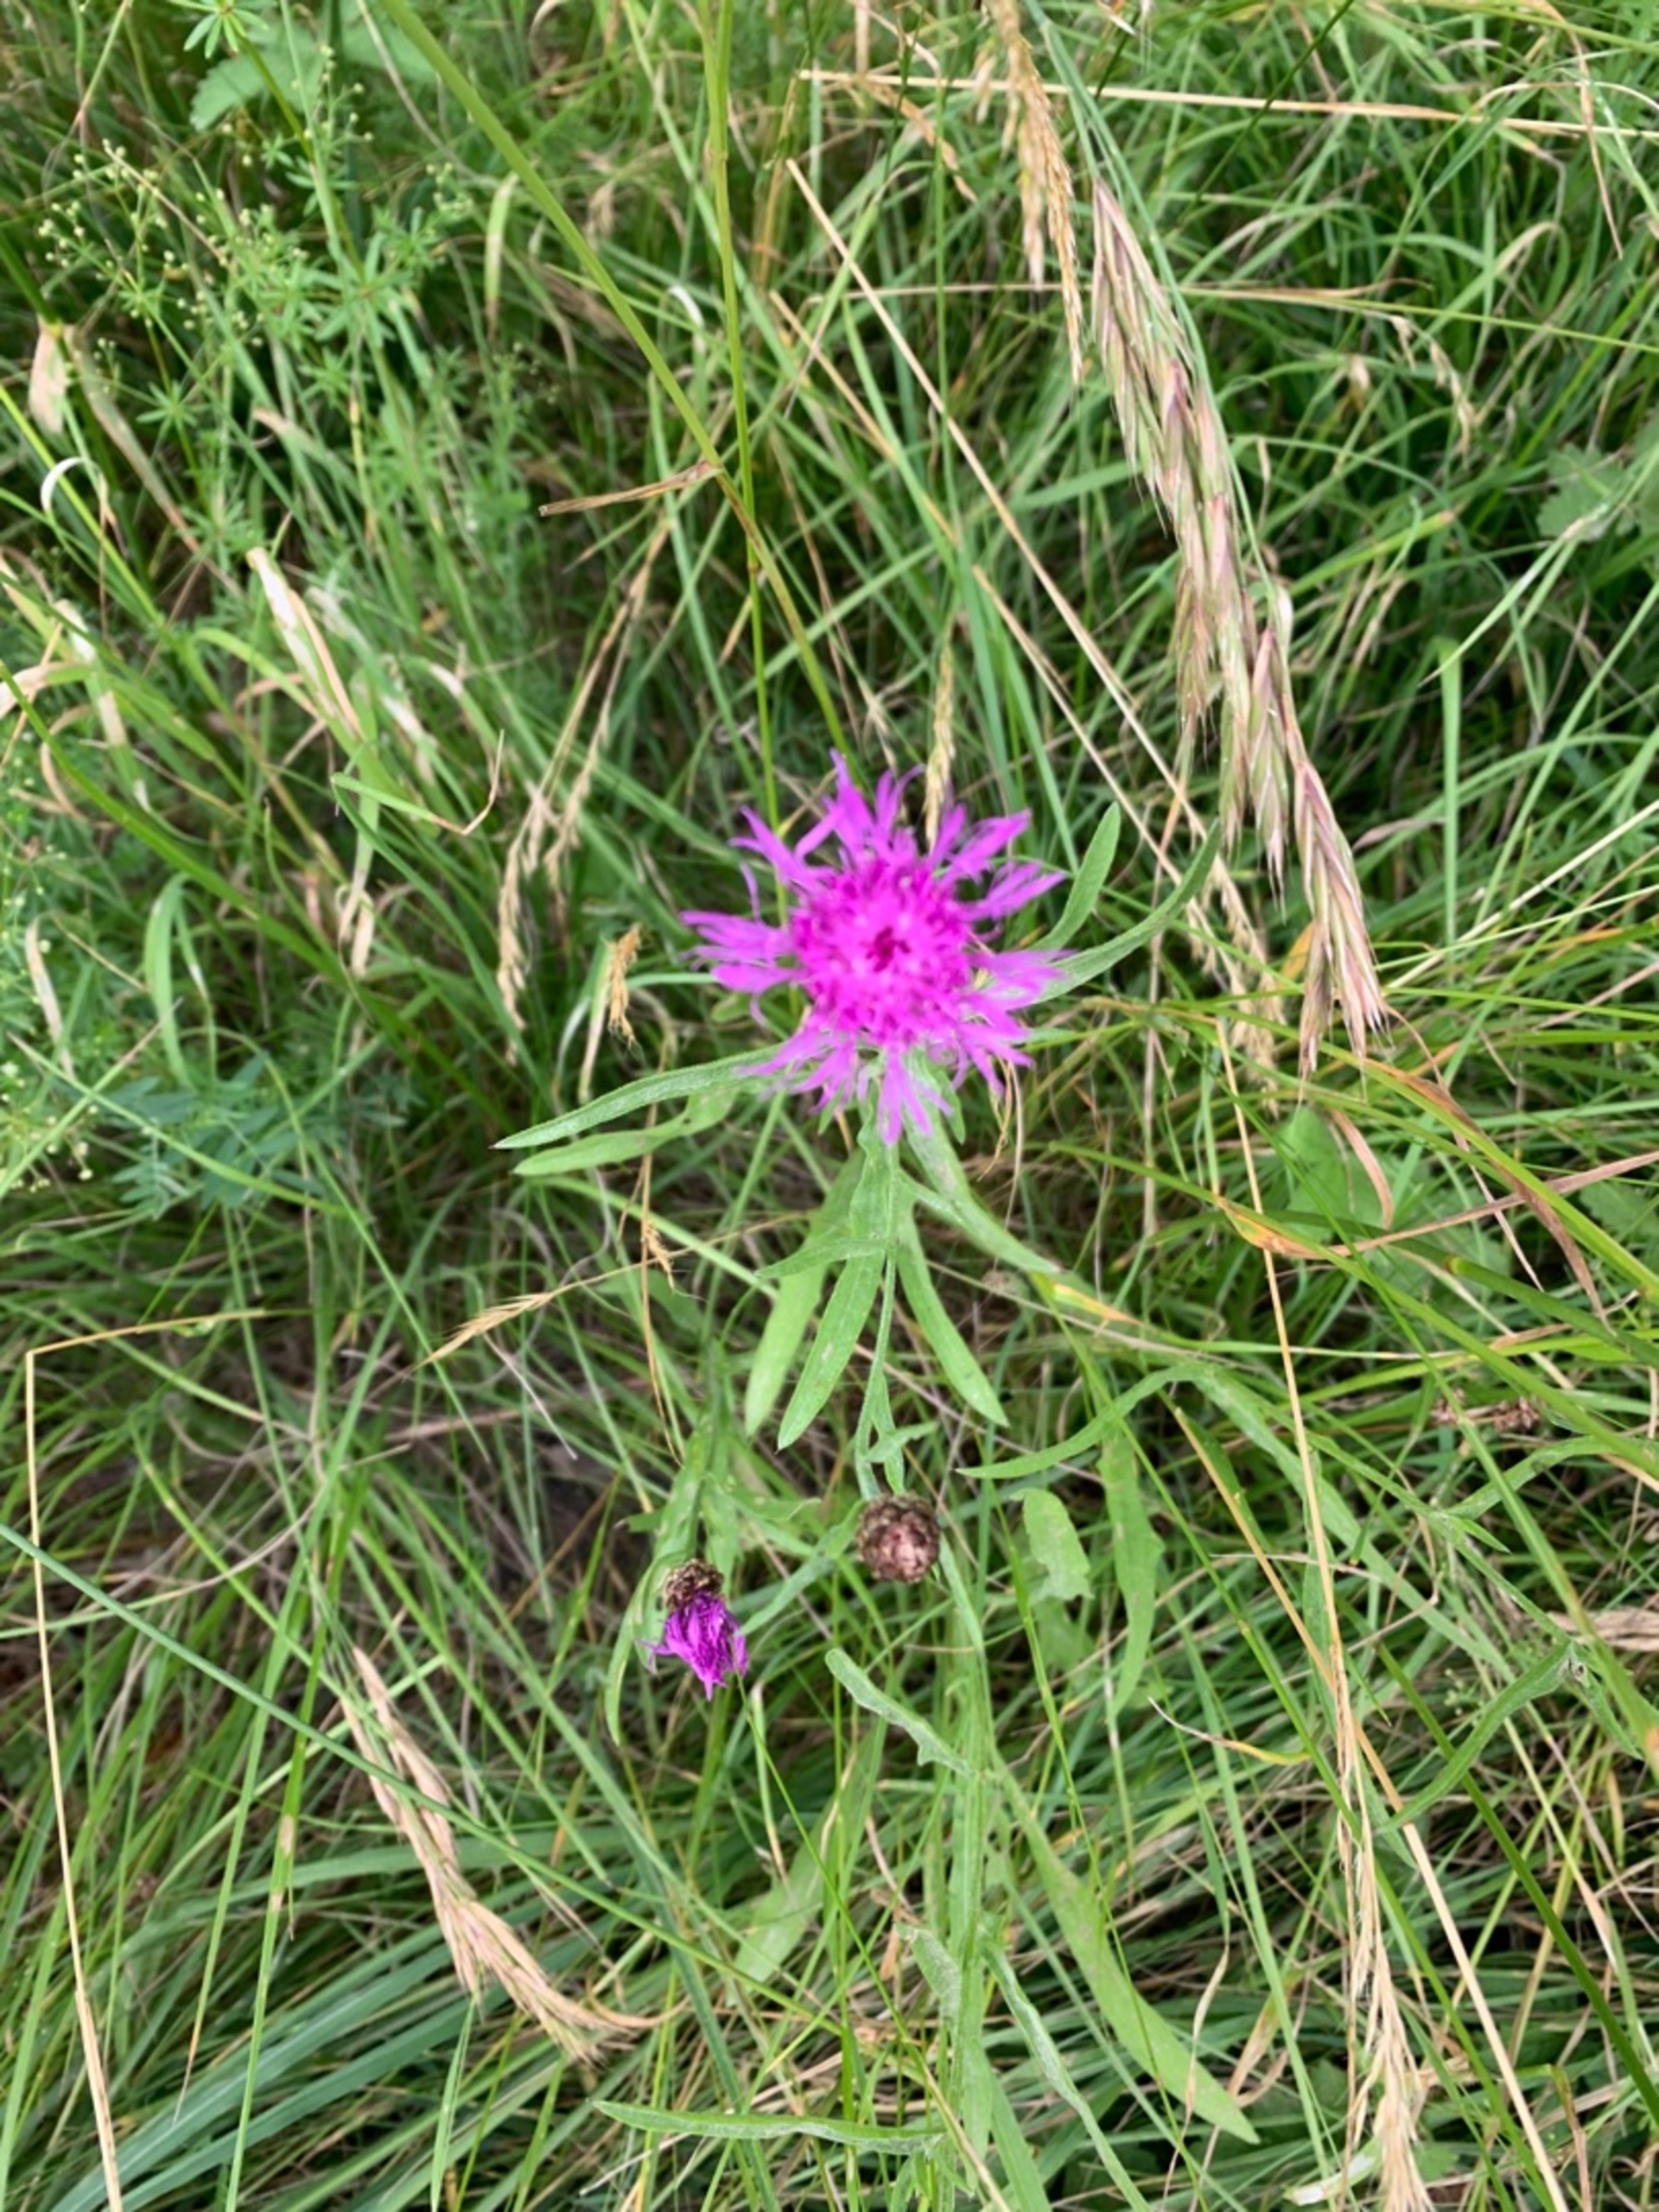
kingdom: Plantae
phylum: Tracheophyta
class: Magnoliopsida
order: Asterales
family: Asteraceae
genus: Centaurea
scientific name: Centaurea jacea
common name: Almindelig knopurt
